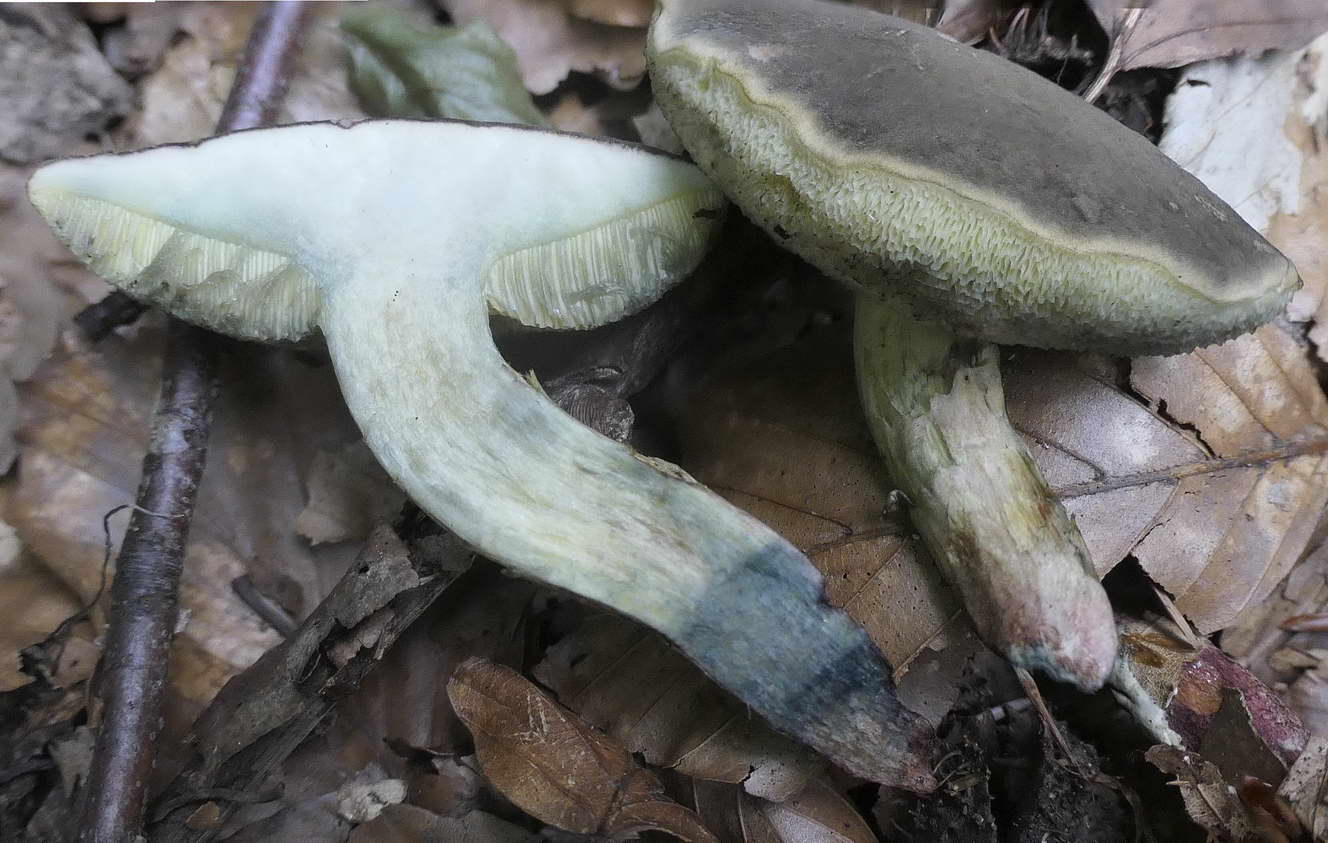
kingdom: Fungi
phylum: Basidiomycota
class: Agaricomycetes
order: Boletales
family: Boletaceae
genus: Xerocomellus
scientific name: Xerocomellus cisalpinus
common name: finsprukken rørhat
